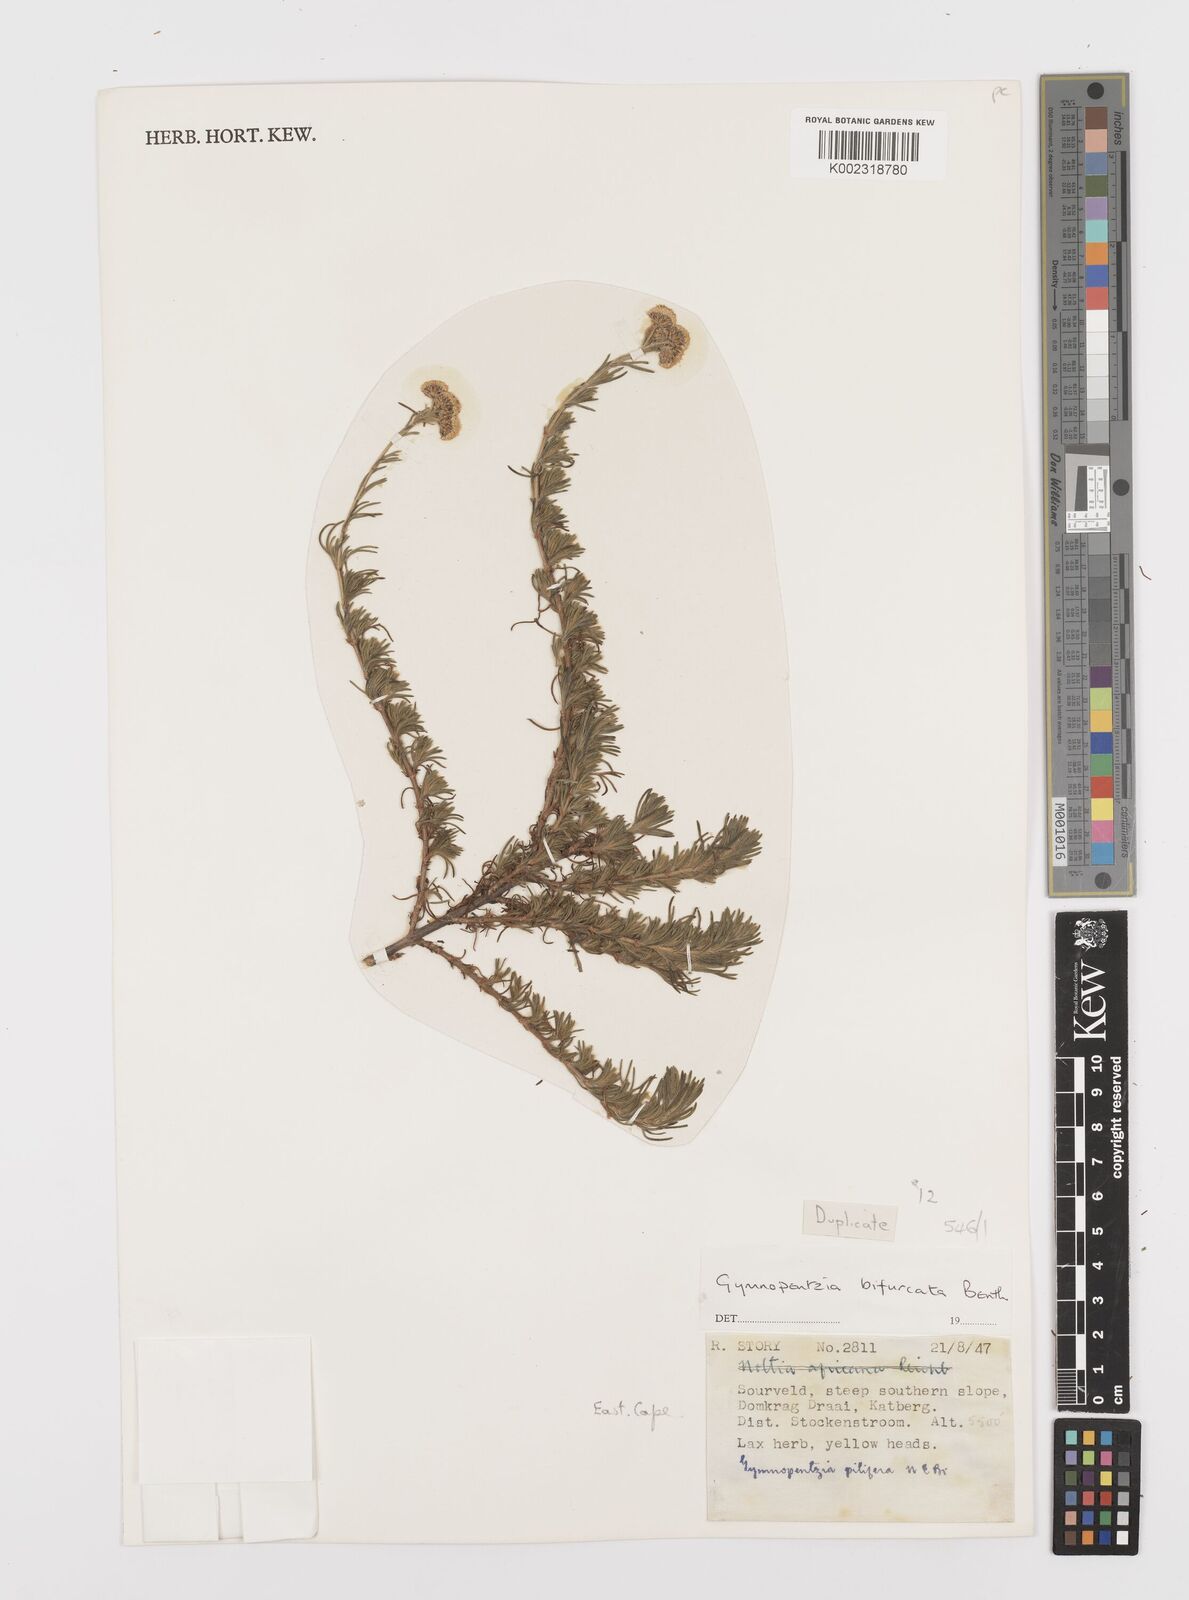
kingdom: Plantae
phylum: Tracheophyta
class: Magnoliopsida
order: Asterales
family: Asteraceae
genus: Gymnopentzia
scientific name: Gymnopentzia bifurcata
